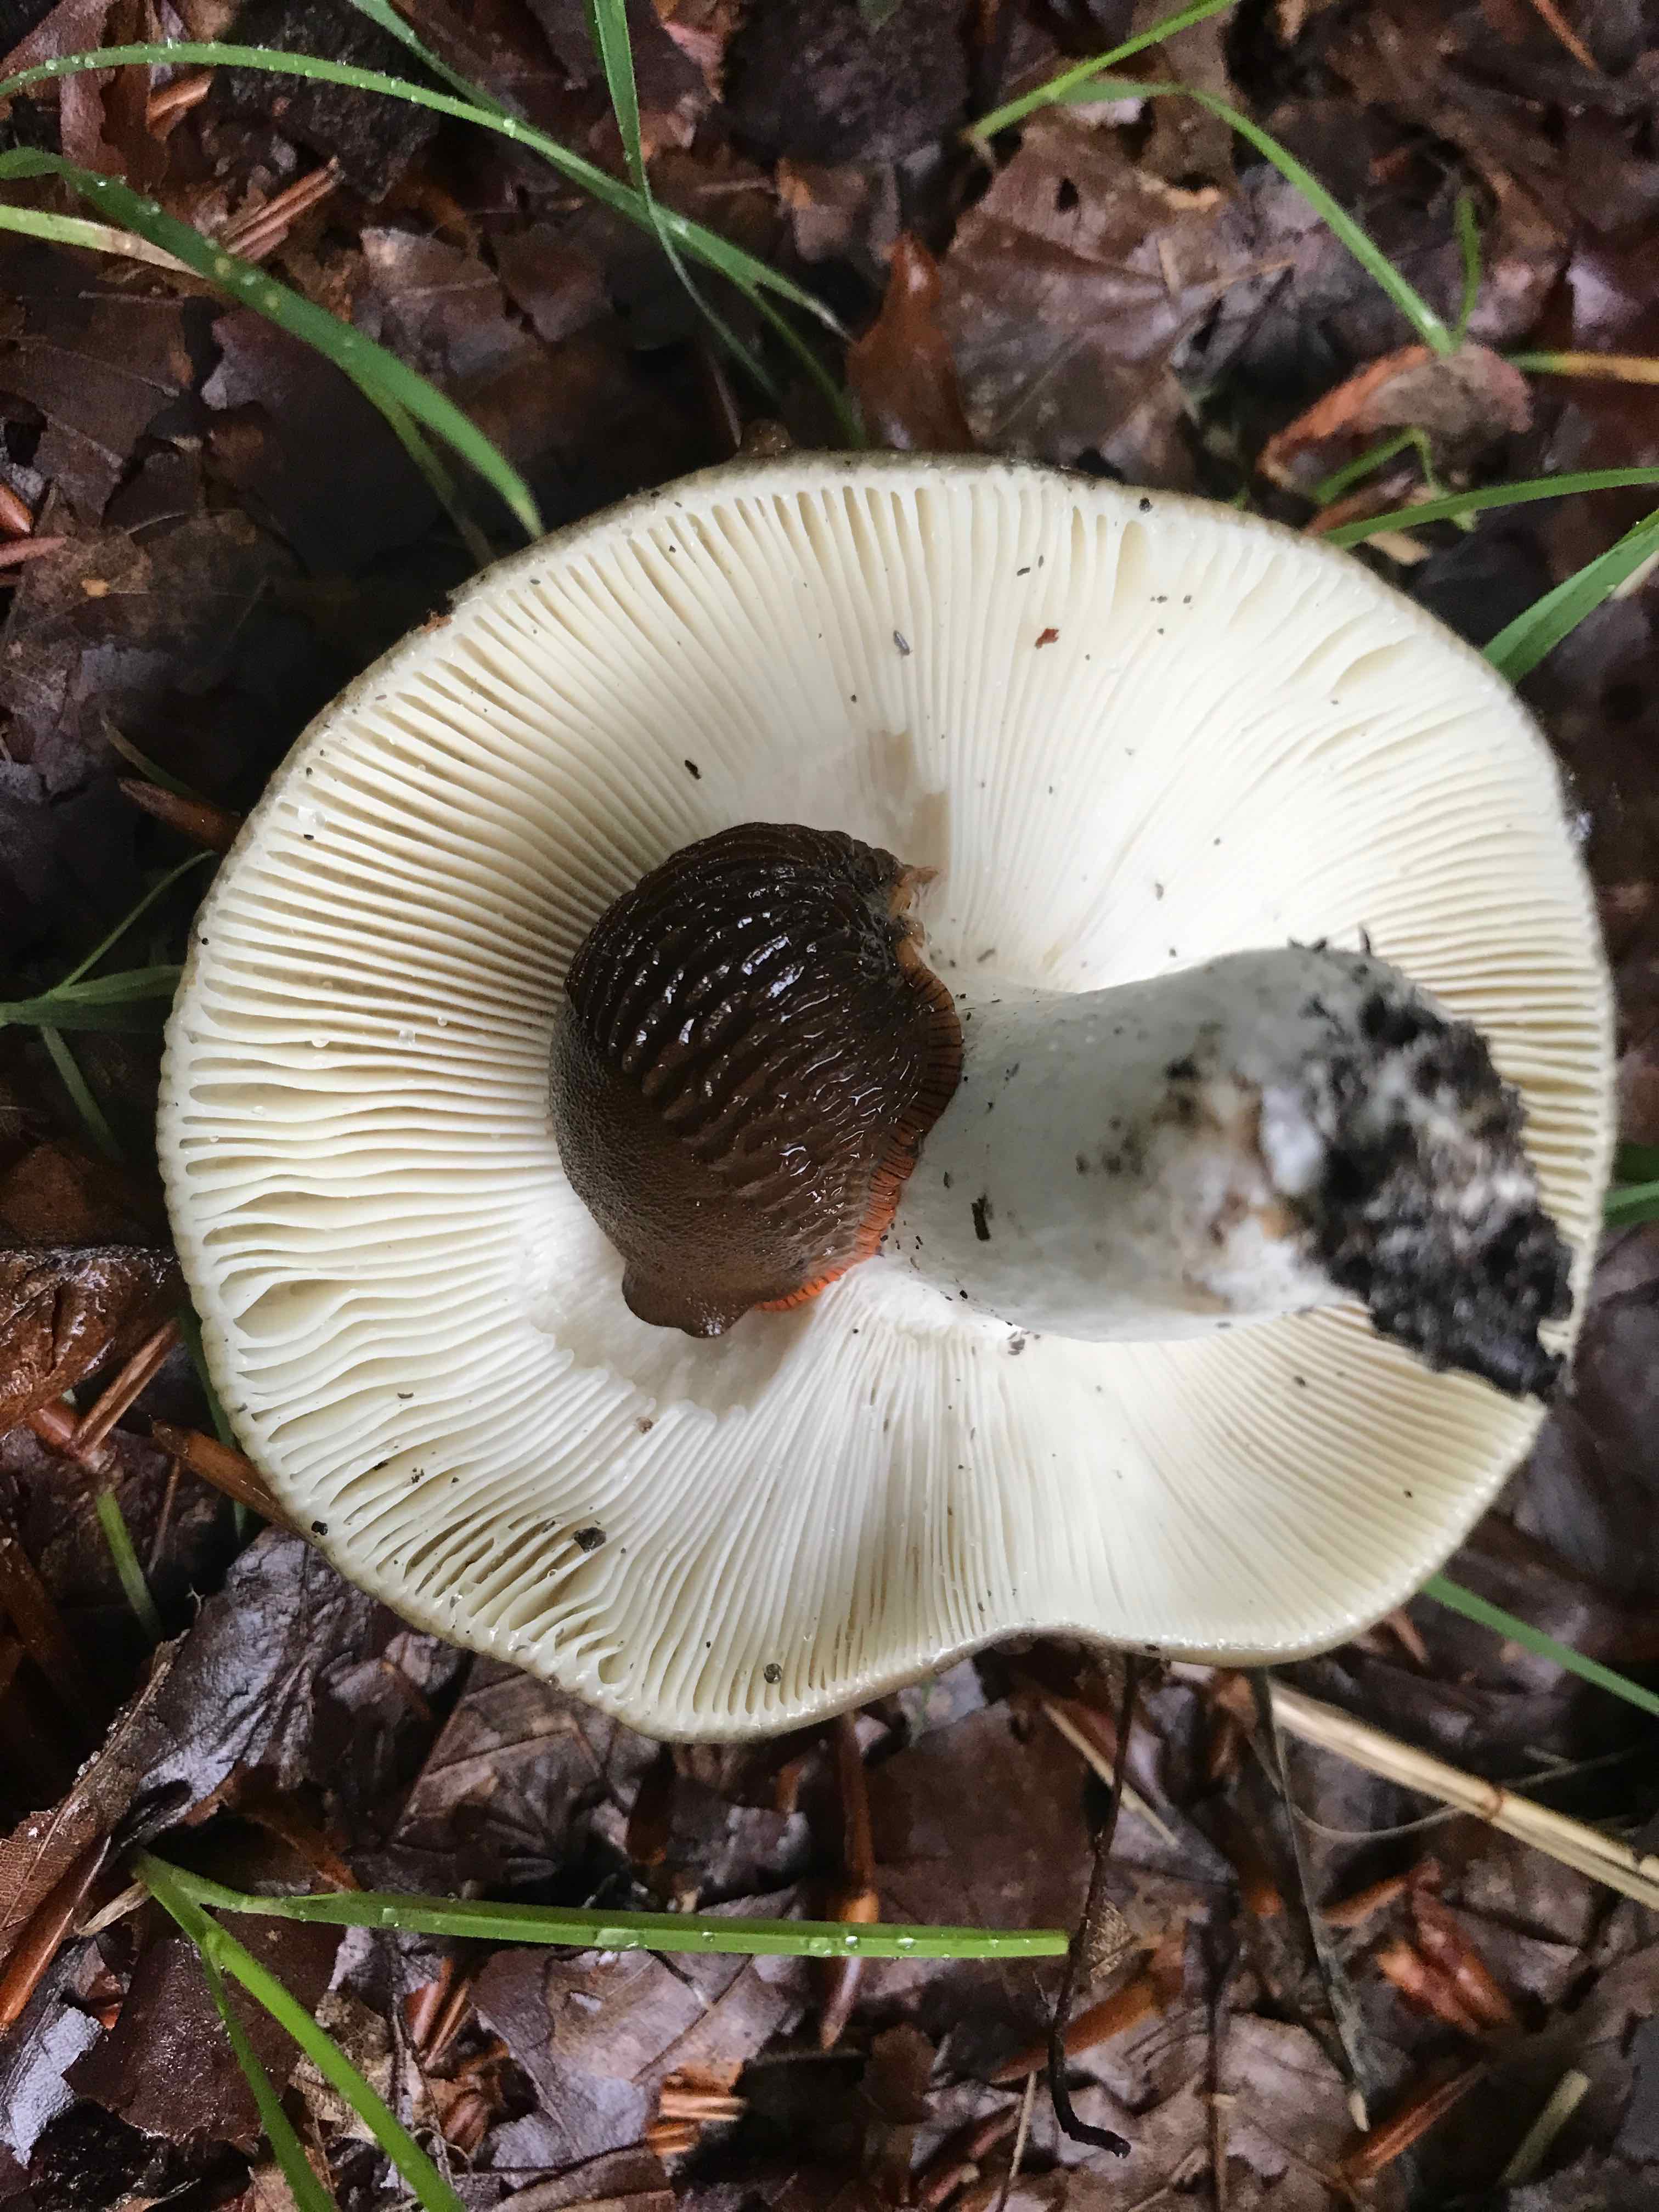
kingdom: Fungi
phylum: Basidiomycota
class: Agaricomycetes
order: Russulales
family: Russulaceae
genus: Russula
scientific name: Russula heterophylla
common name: gaffelbladet skørhat
